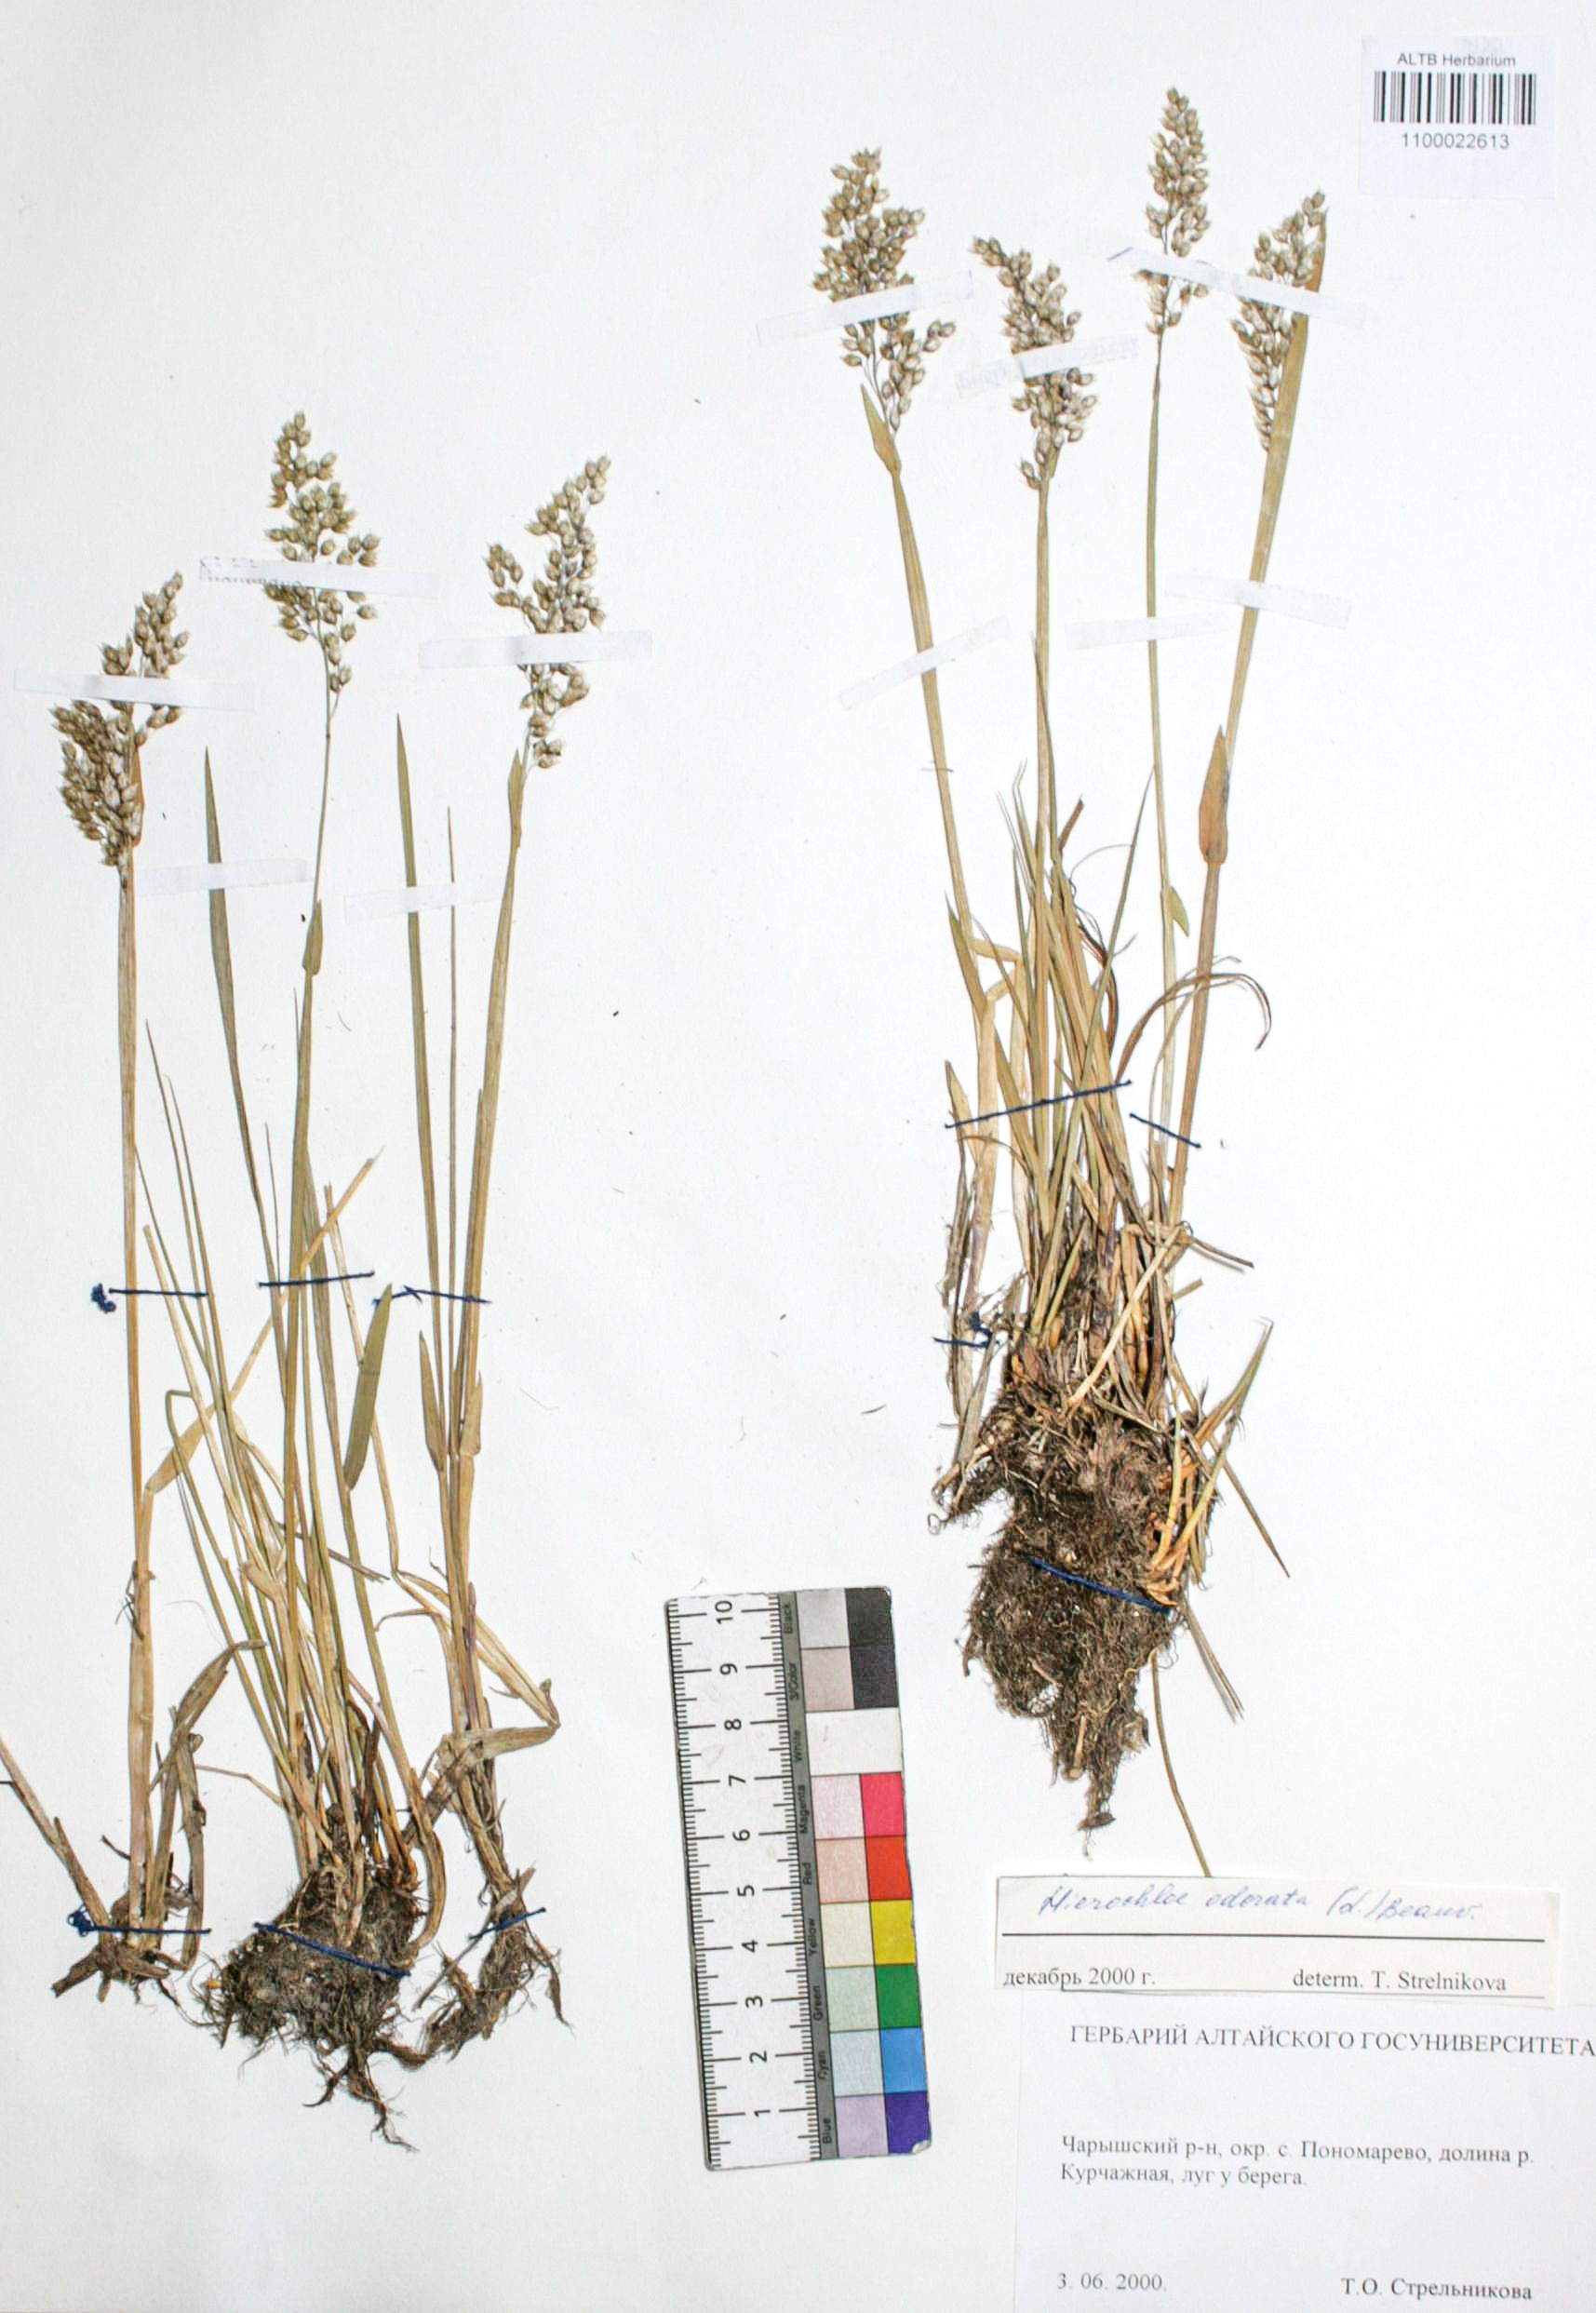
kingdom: Plantae
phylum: Tracheophyta
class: Liliopsida
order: Poales
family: Poaceae
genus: Anthoxanthum
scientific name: Anthoxanthum glabrum
